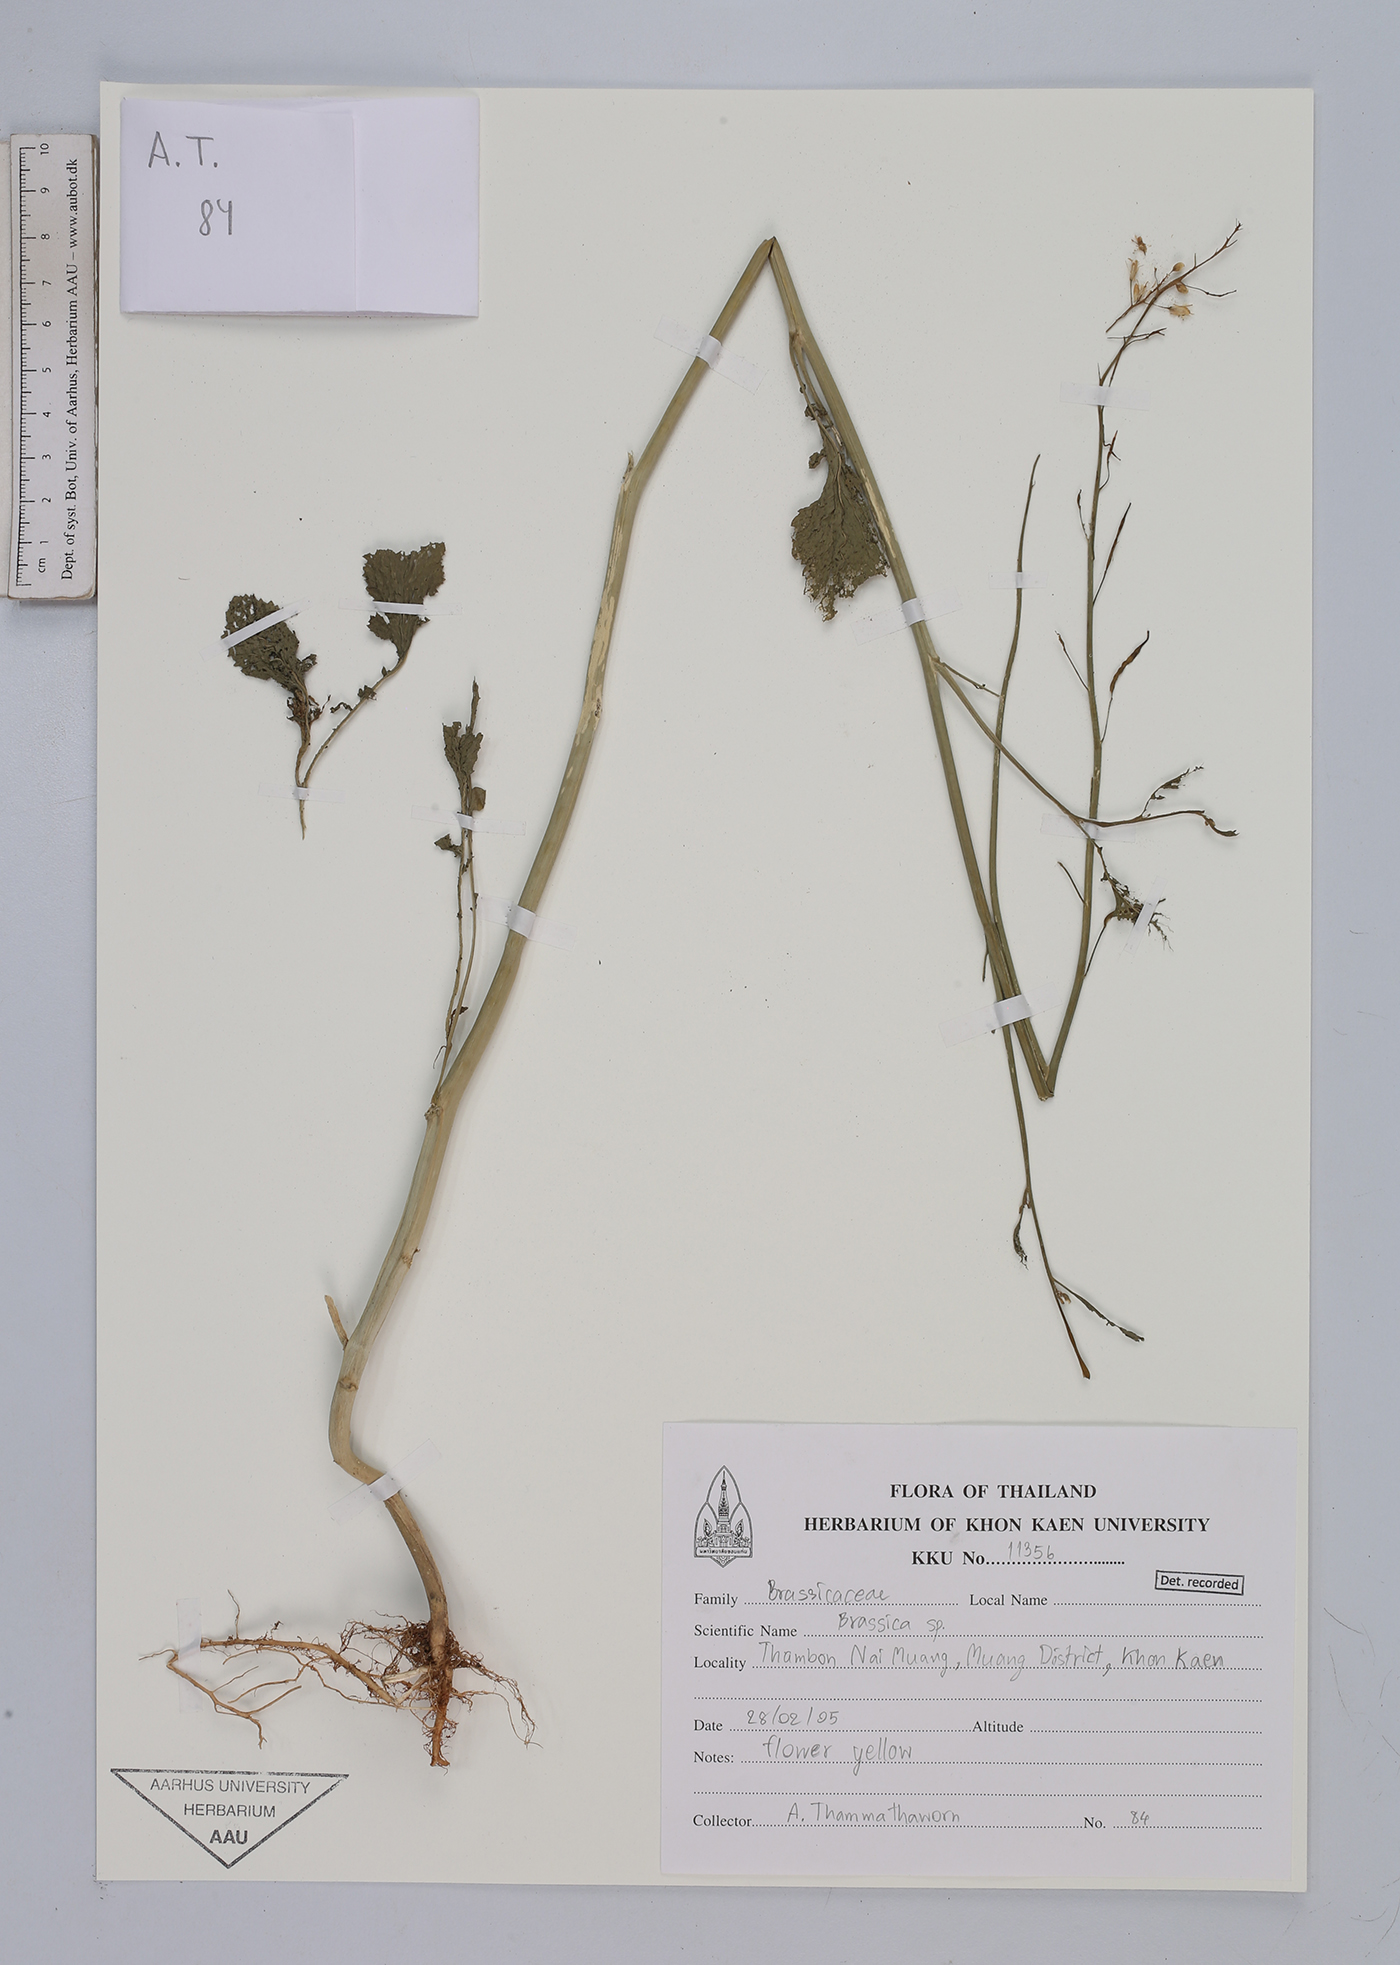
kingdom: Plantae
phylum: Tracheophyta
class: Magnoliopsida
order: Brassicales
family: Brassicaceae
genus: Brassica
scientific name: Brassica
